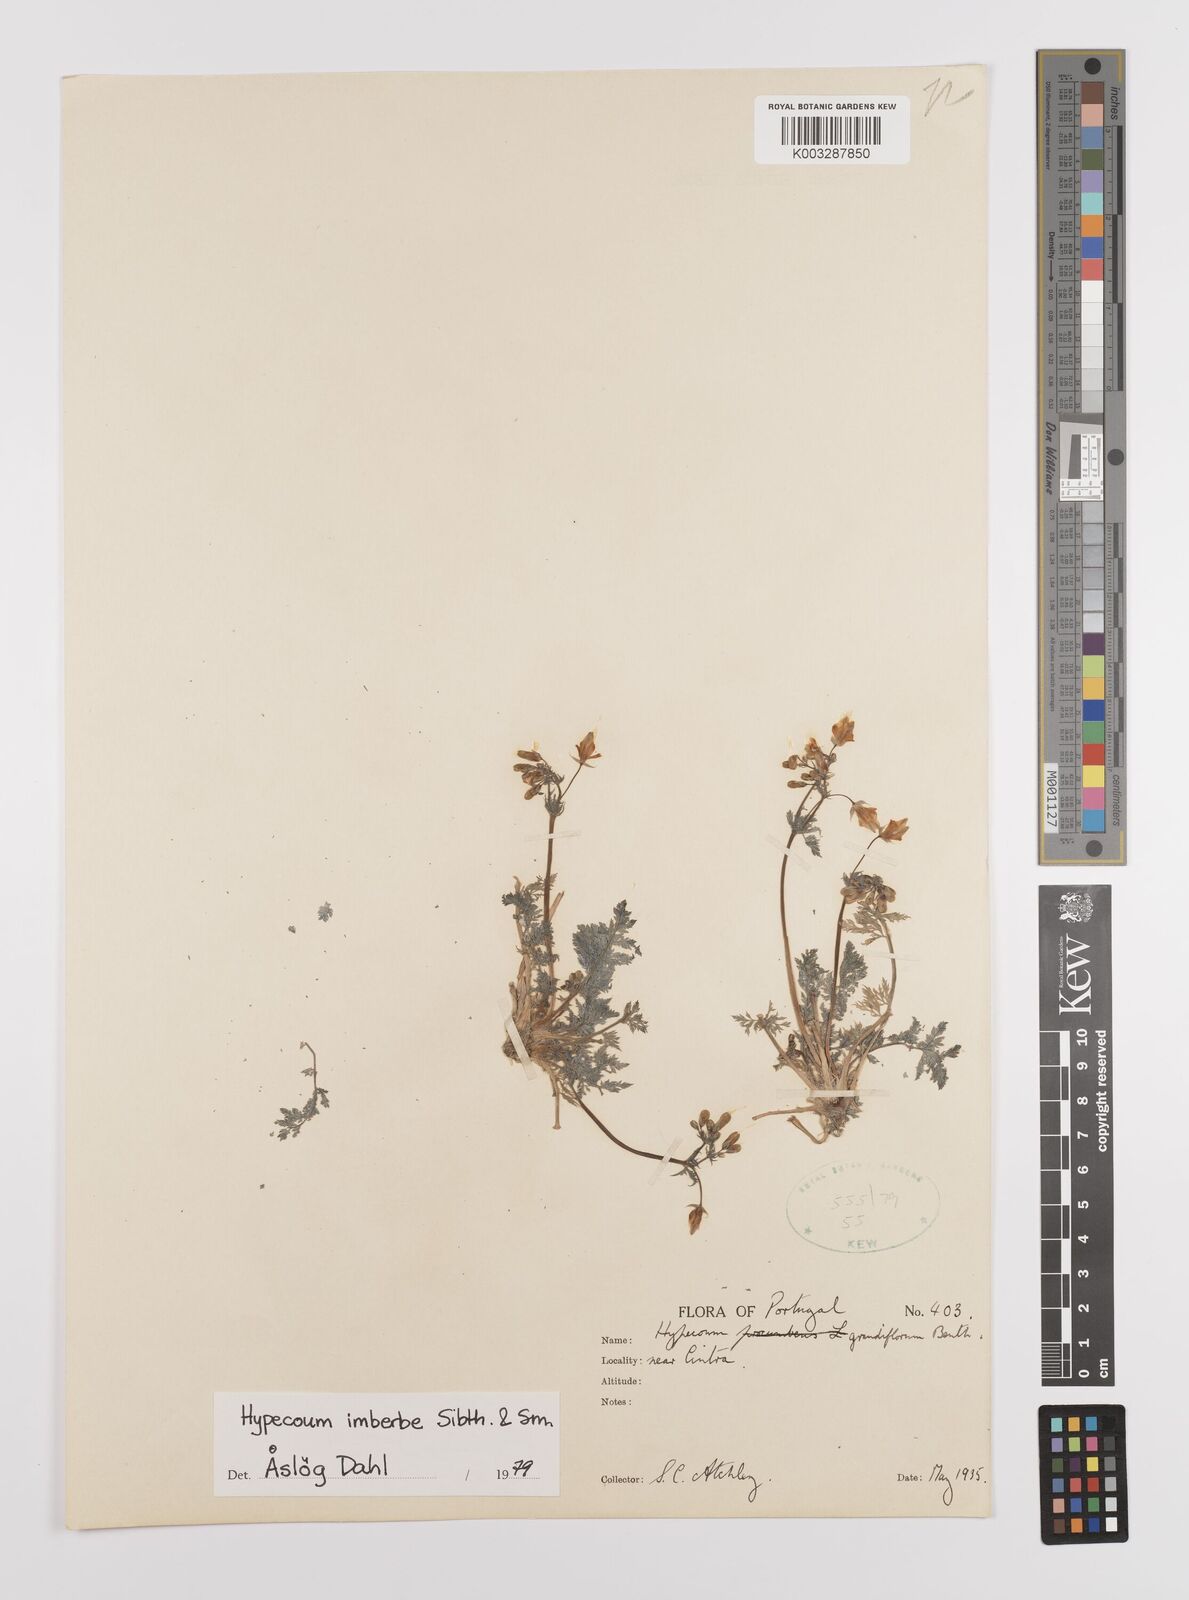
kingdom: Plantae
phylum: Tracheophyta
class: Magnoliopsida
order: Ranunculales
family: Papaveraceae
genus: Hypecoum
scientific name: Hypecoum imberbe
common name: Sicklefruit hypecoum
